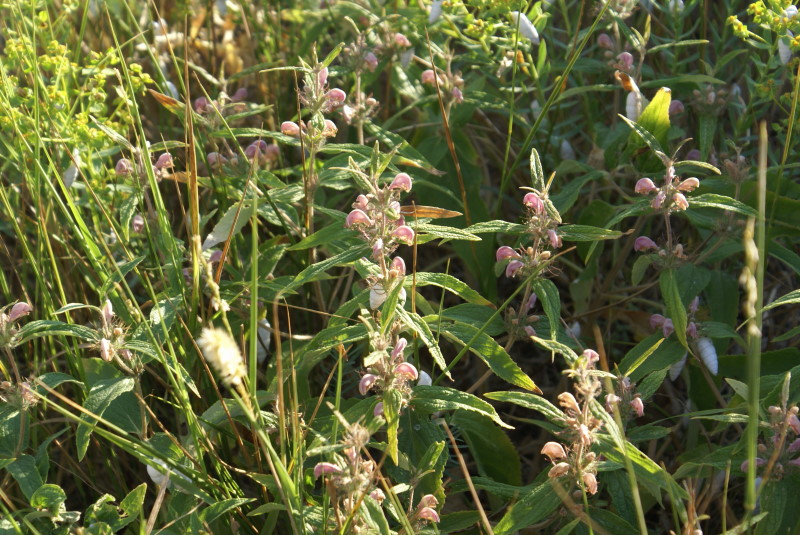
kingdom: Plantae
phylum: Tracheophyta
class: Magnoliopsida
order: Lamiales
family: Lamiaceae
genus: Phlomis
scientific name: Phlomis herba-venti
